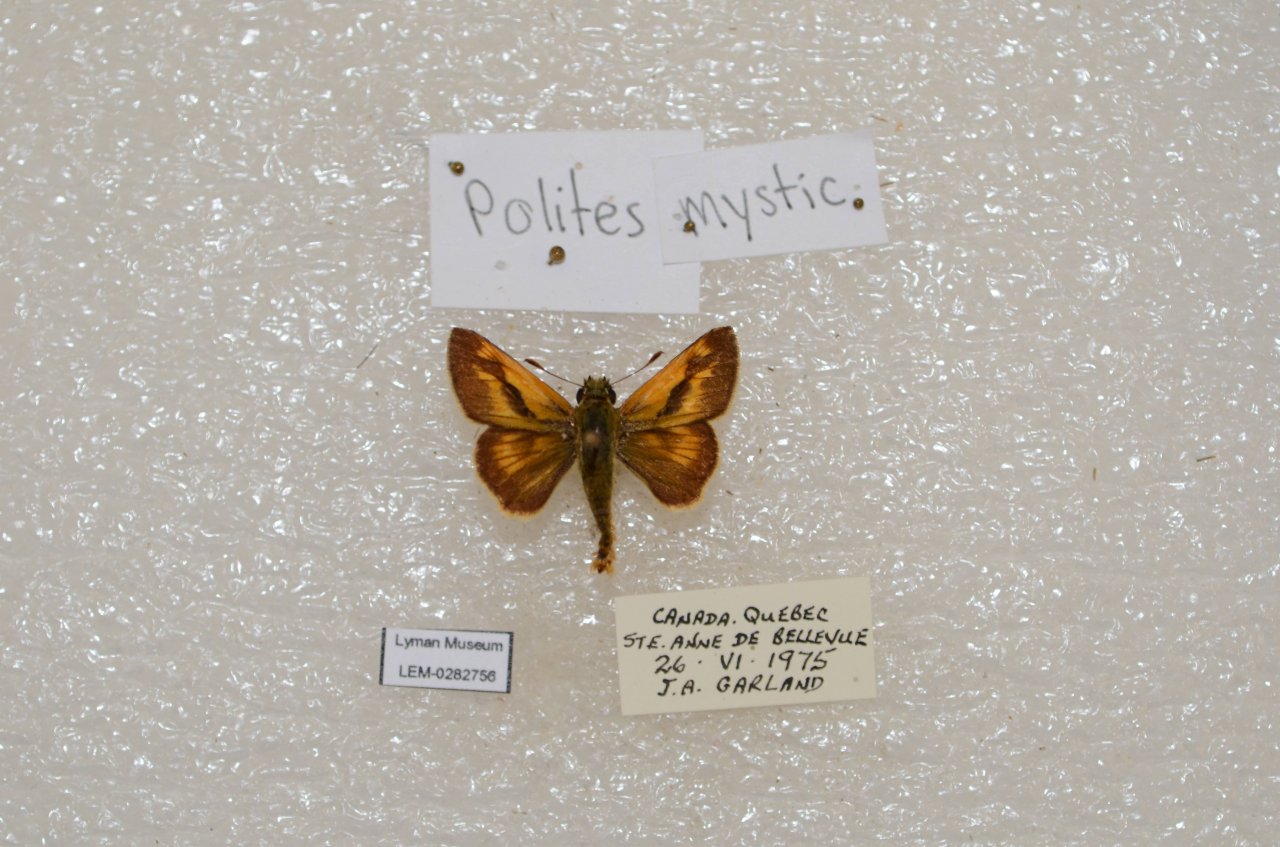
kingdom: Animalia
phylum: Arthropoda
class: Insecta
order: Lepidoptera
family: Hesperiidae
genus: Polites
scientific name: Polites
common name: Long Dash Skipper
